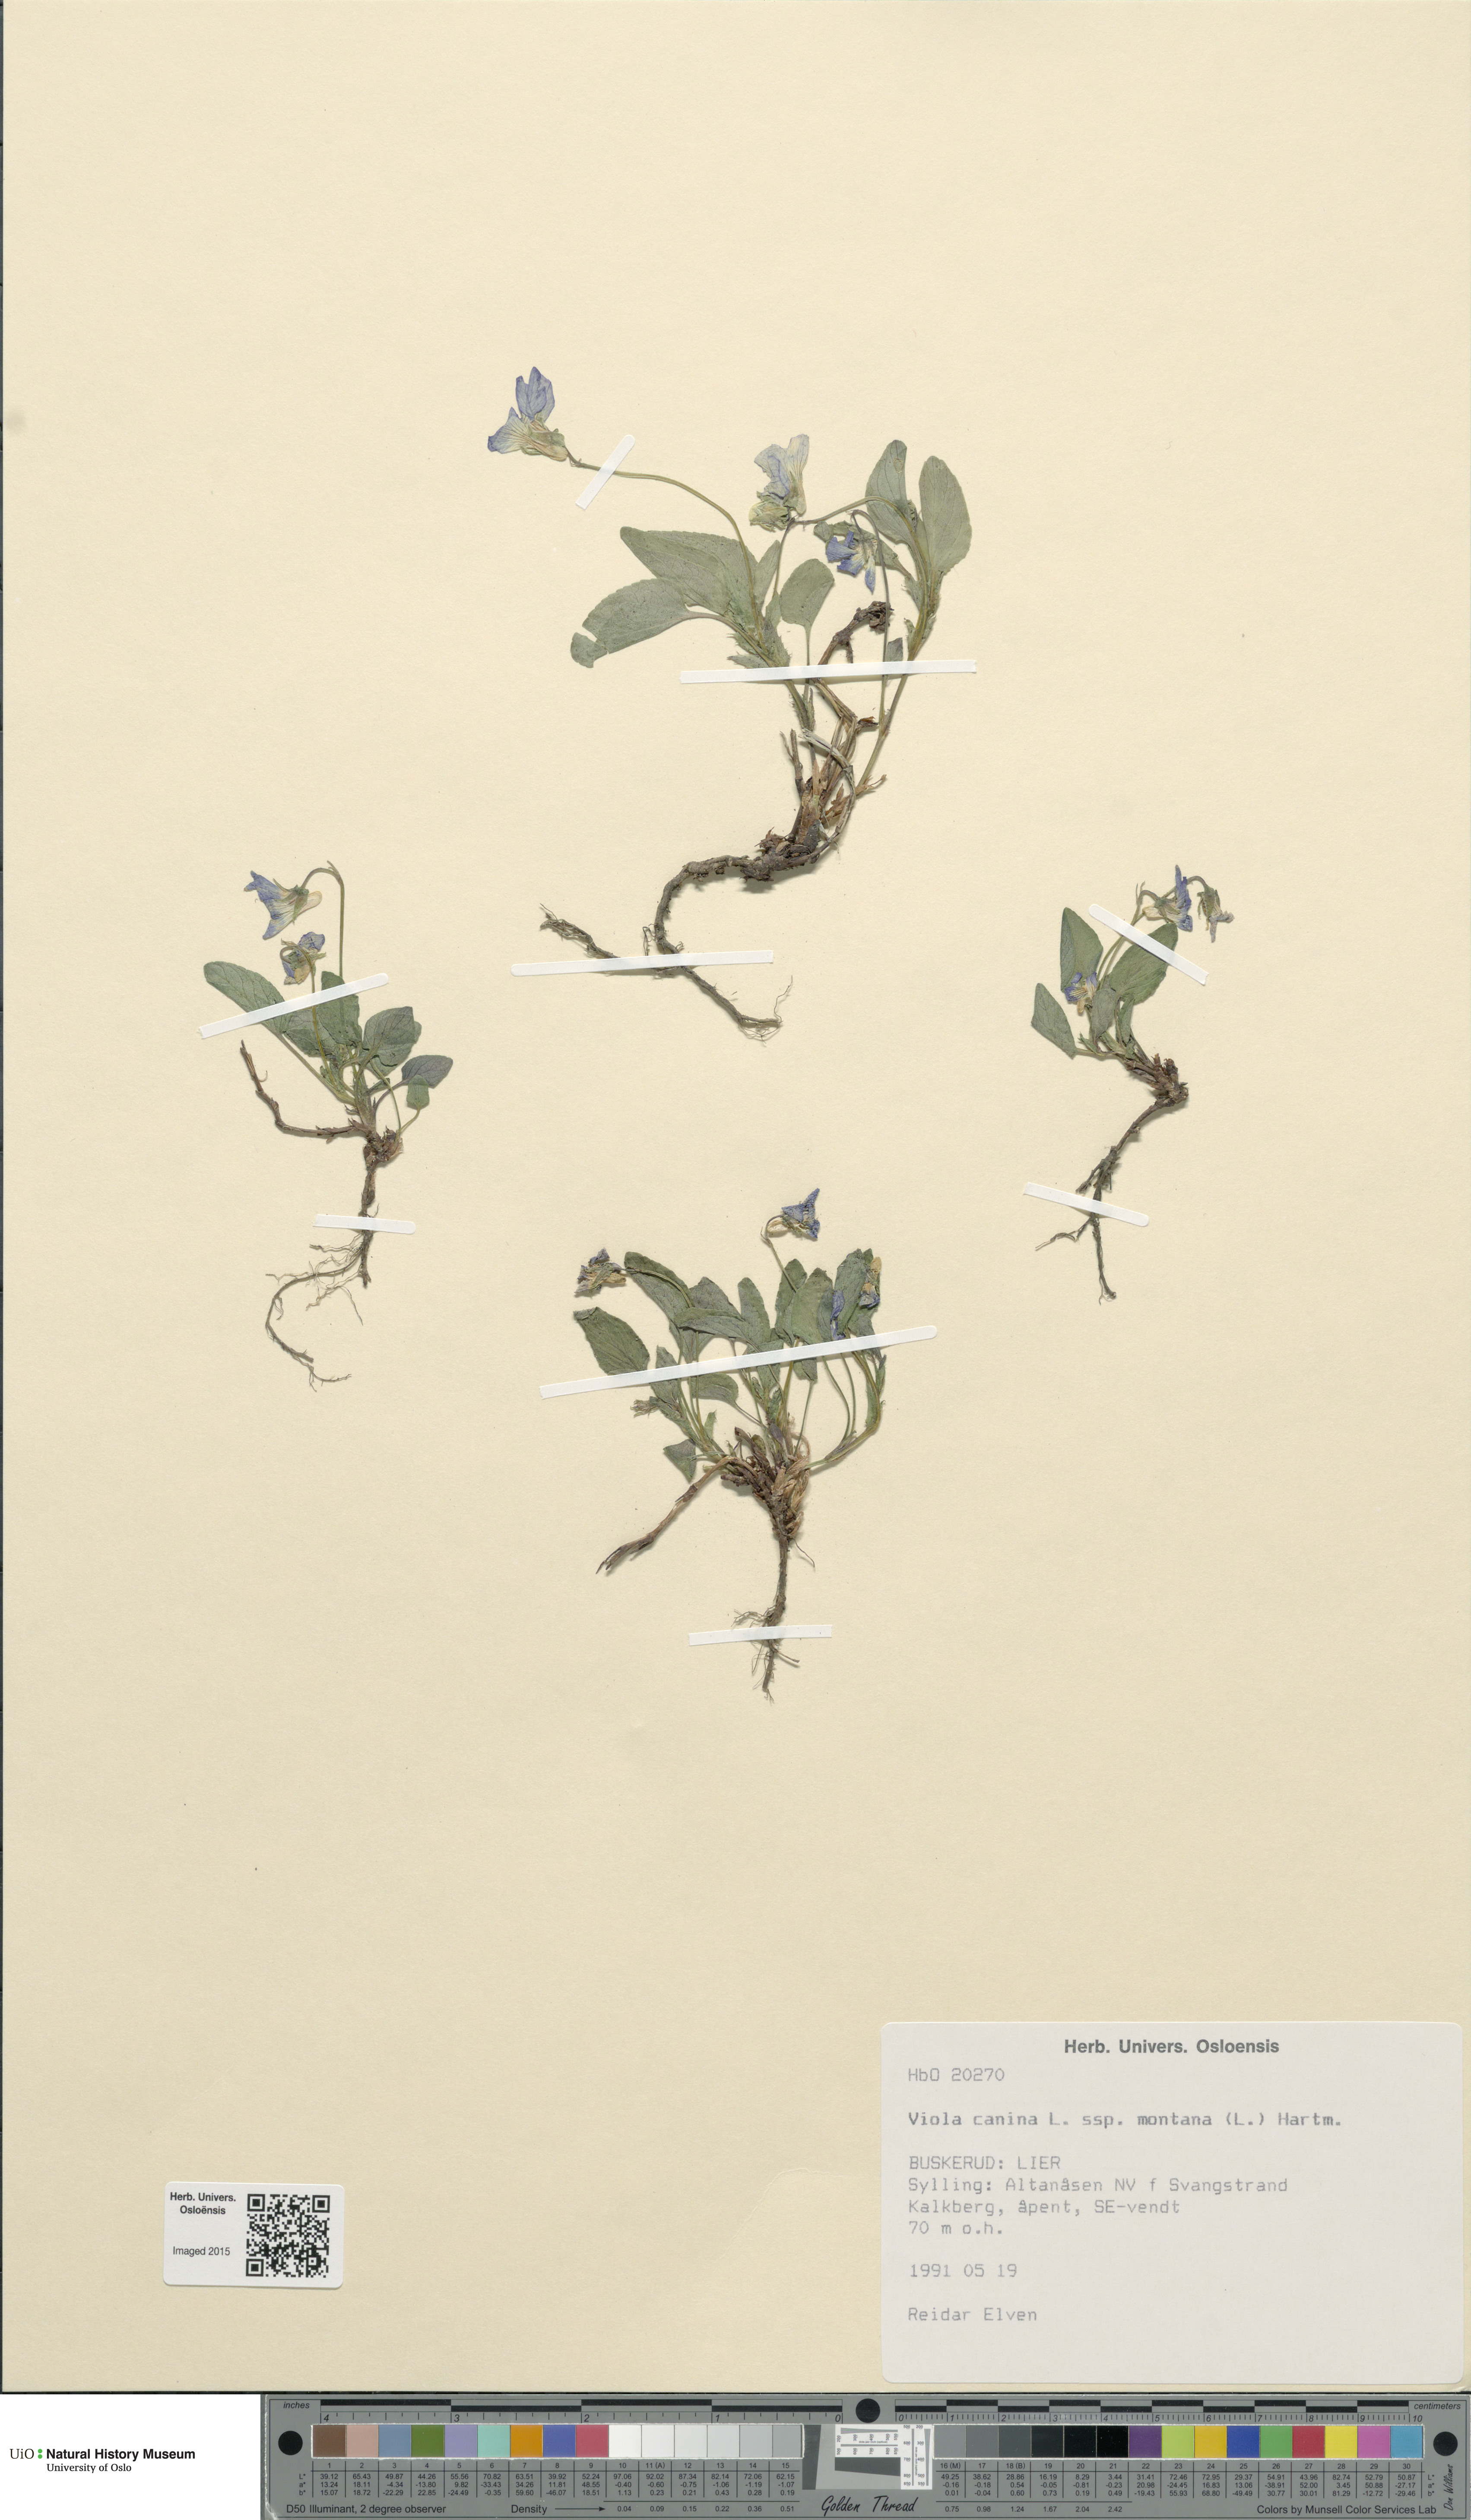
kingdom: Plantae
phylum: Tracheophyta
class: Liliopsida
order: Poales
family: Poaceae
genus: Poa
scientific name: Poa abbreviata
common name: Abbreviated bluegrass
